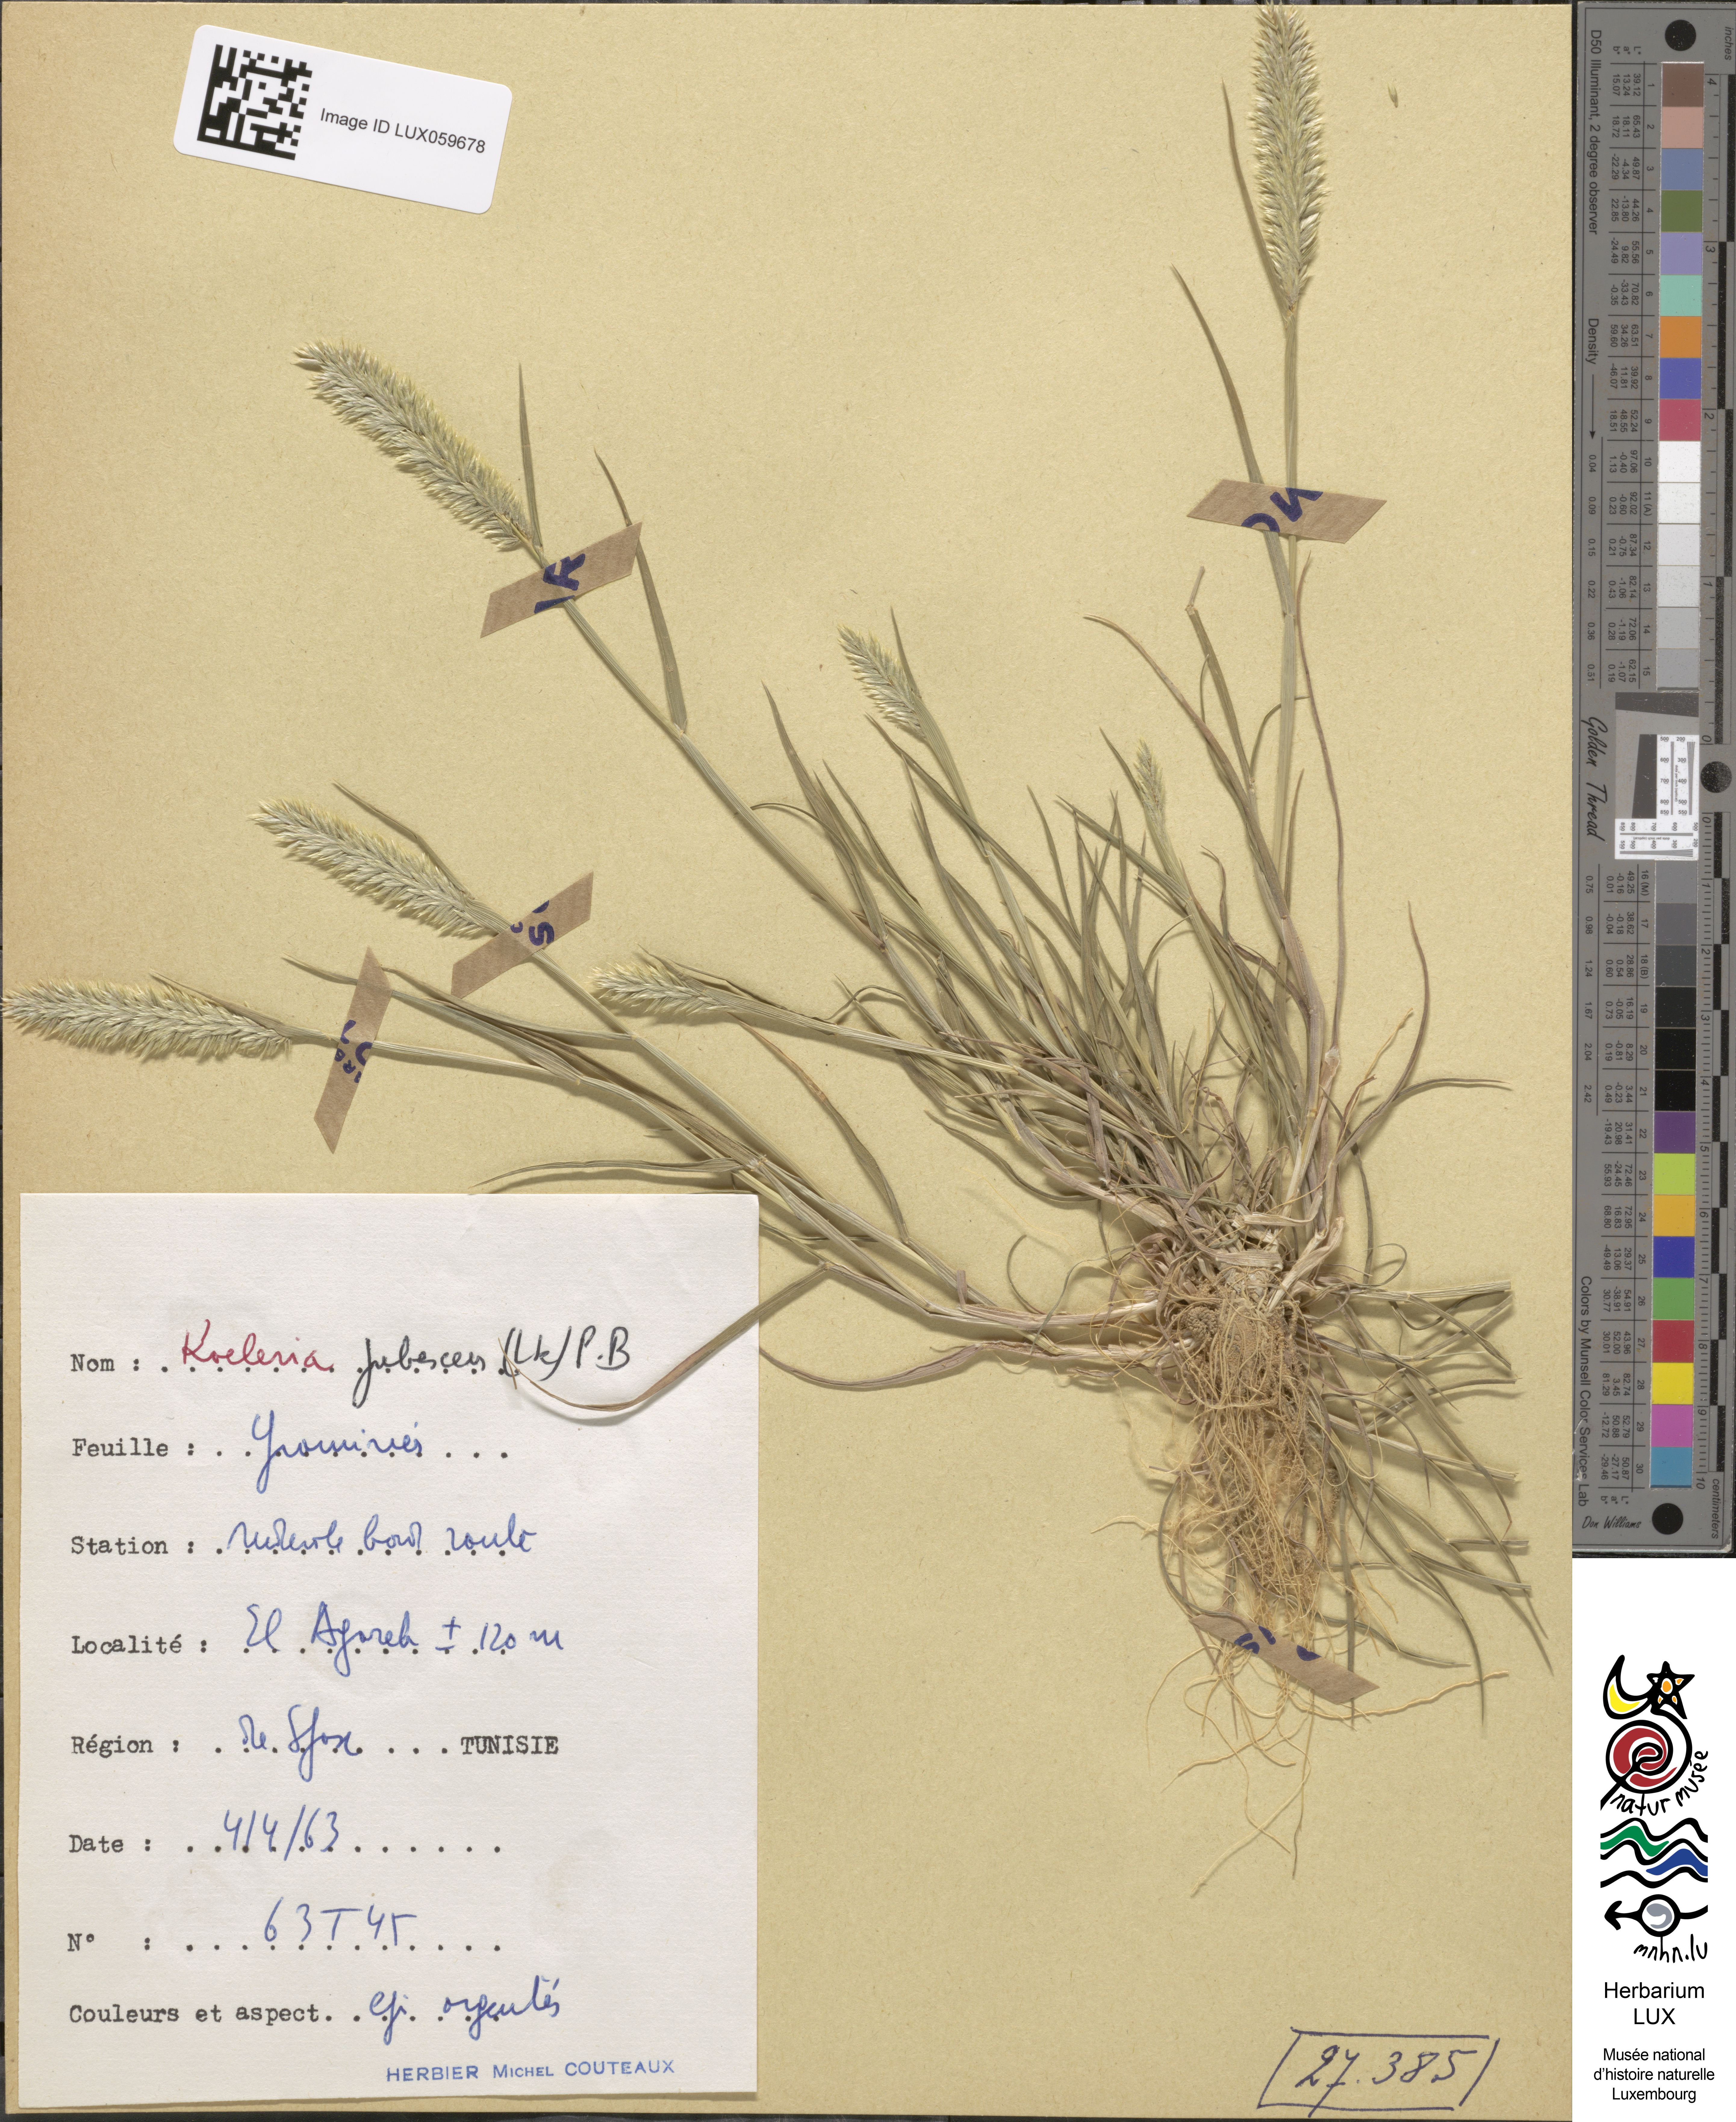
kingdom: Plantae
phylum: Tracheophyta
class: Liliopsida
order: Poales
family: Poaceae
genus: Rostraria
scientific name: Rostraria litorea
